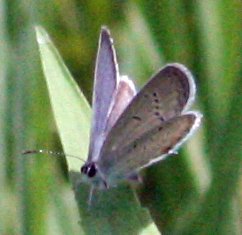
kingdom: Animalia
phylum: Arthropoda
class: Insecta
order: Lepidoptera
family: Lycaenidae
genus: Elkalyce
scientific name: Elkalyce comyntas
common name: Eastern Tailed-Blue
